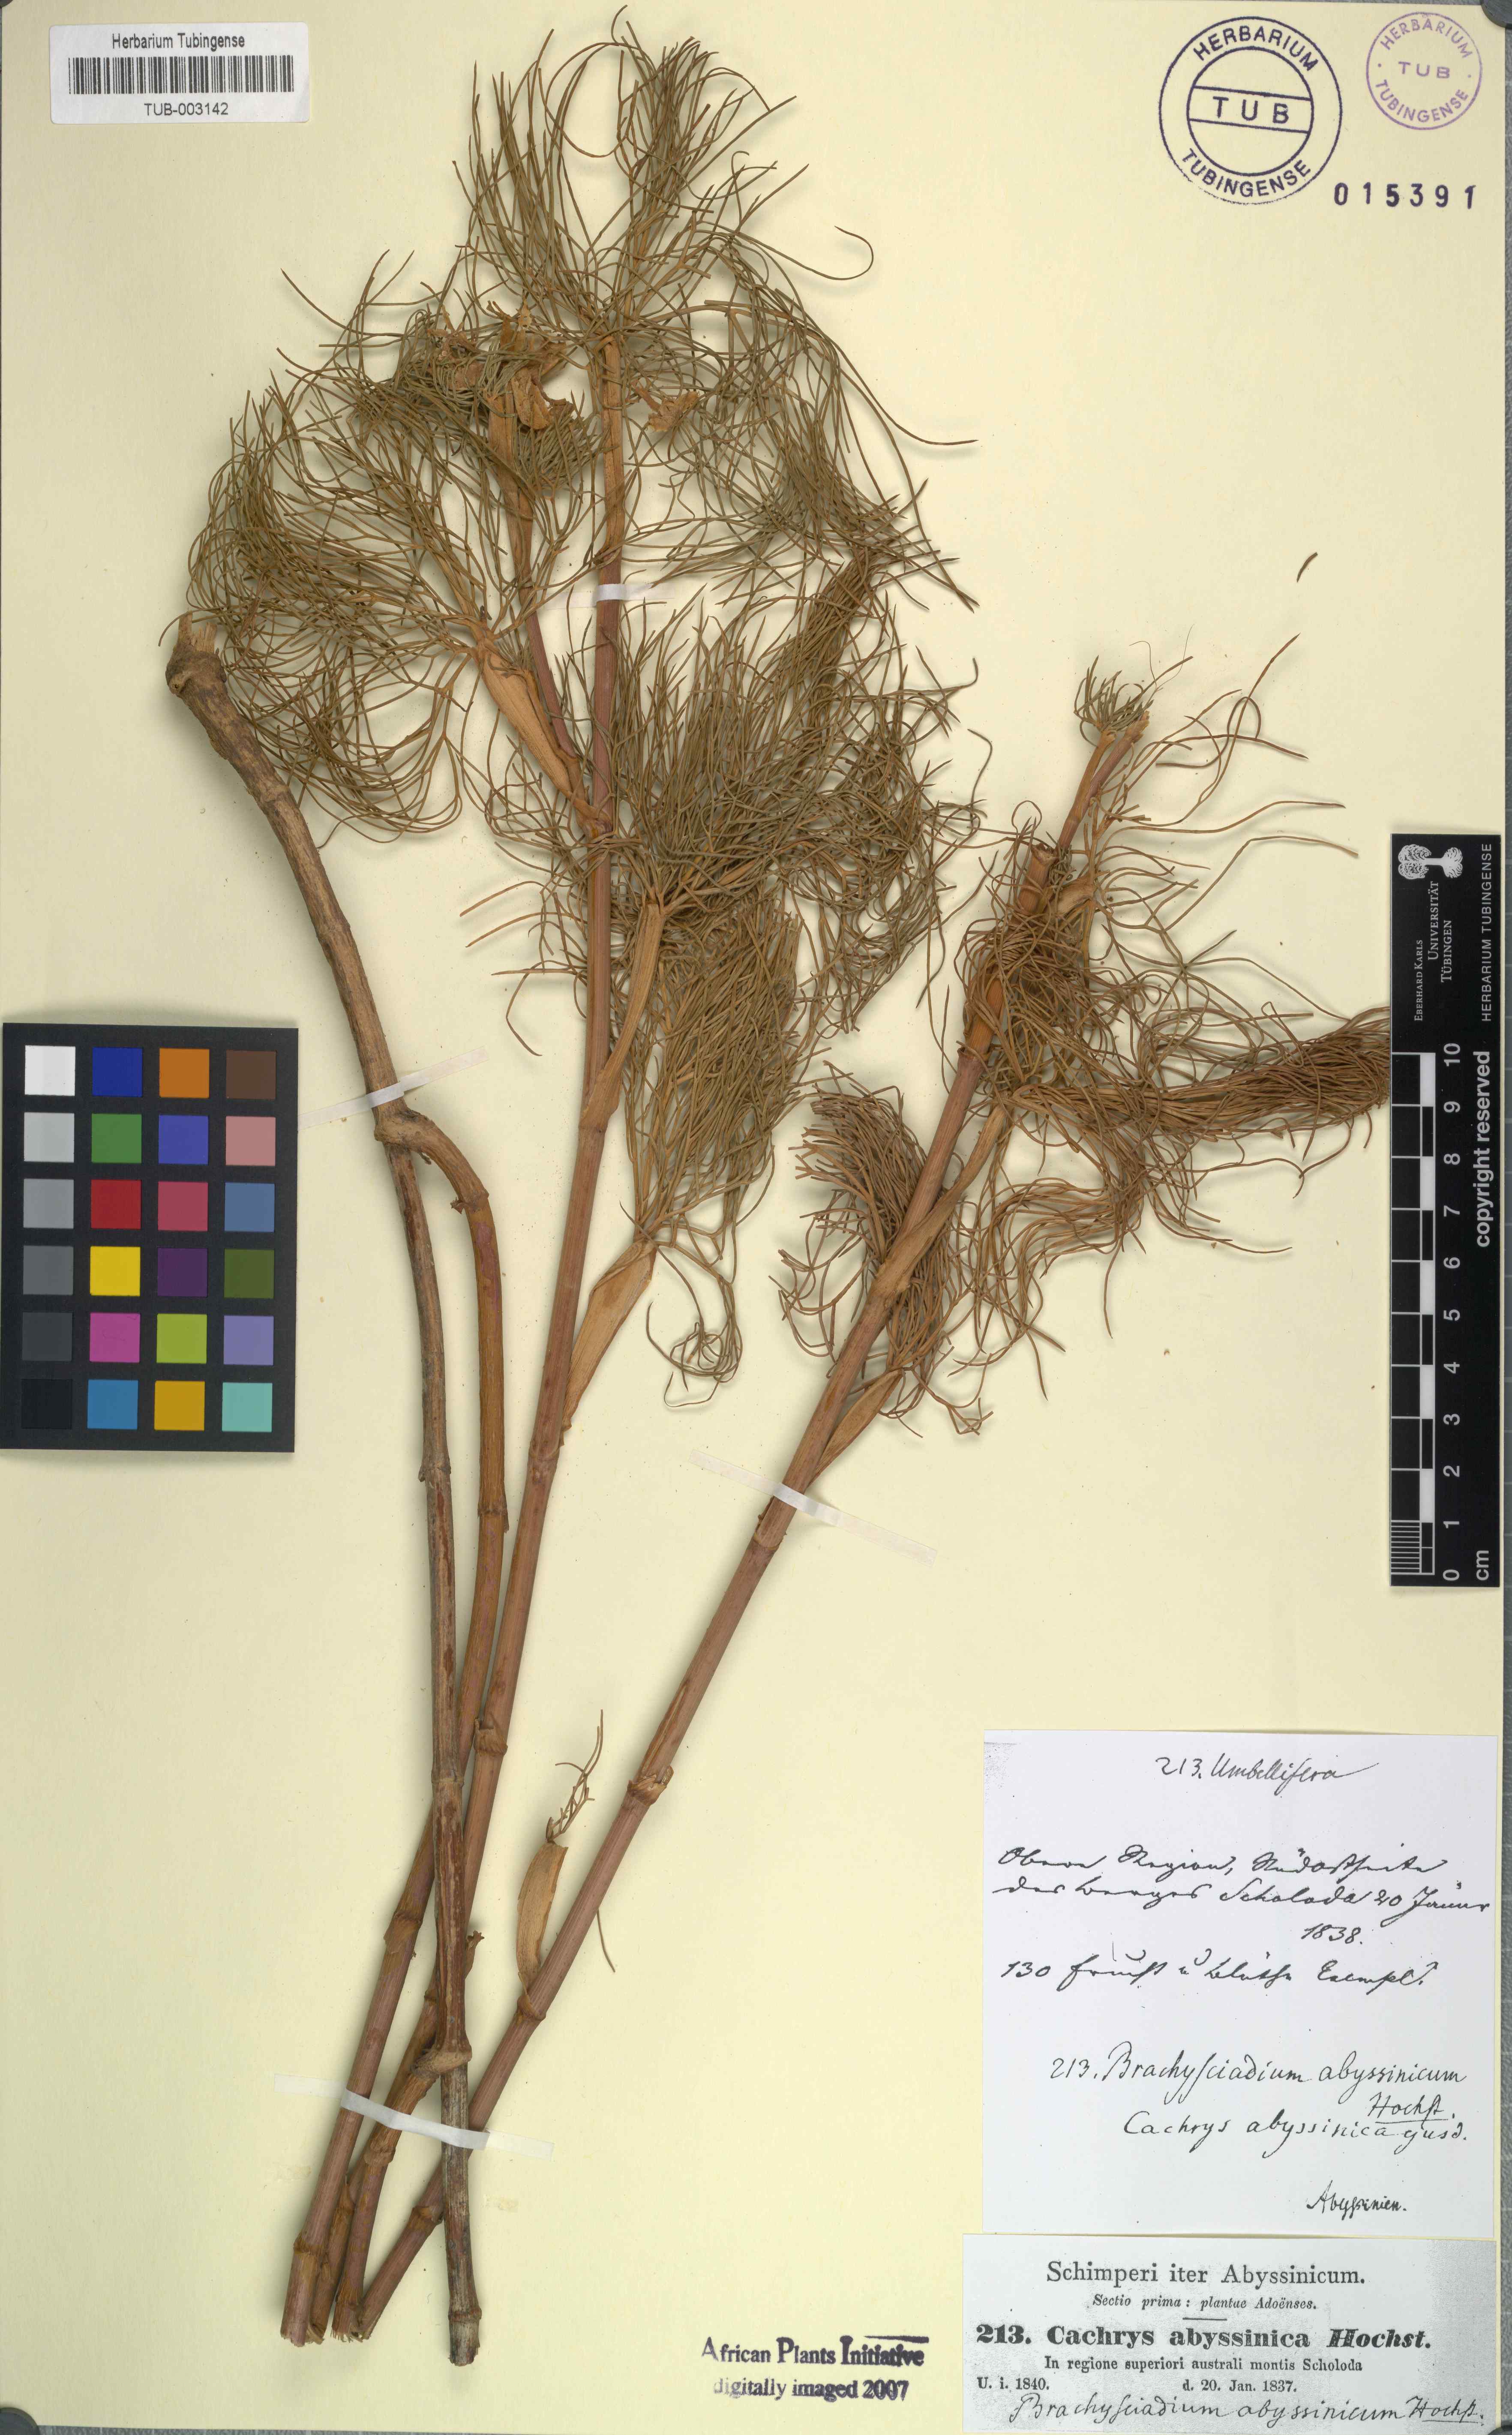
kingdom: Plantae
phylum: Tracheophyta
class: Magnoliopsida
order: Apiales
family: Apiaceae
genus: Diplolophium
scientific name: Diplolophium africanum
